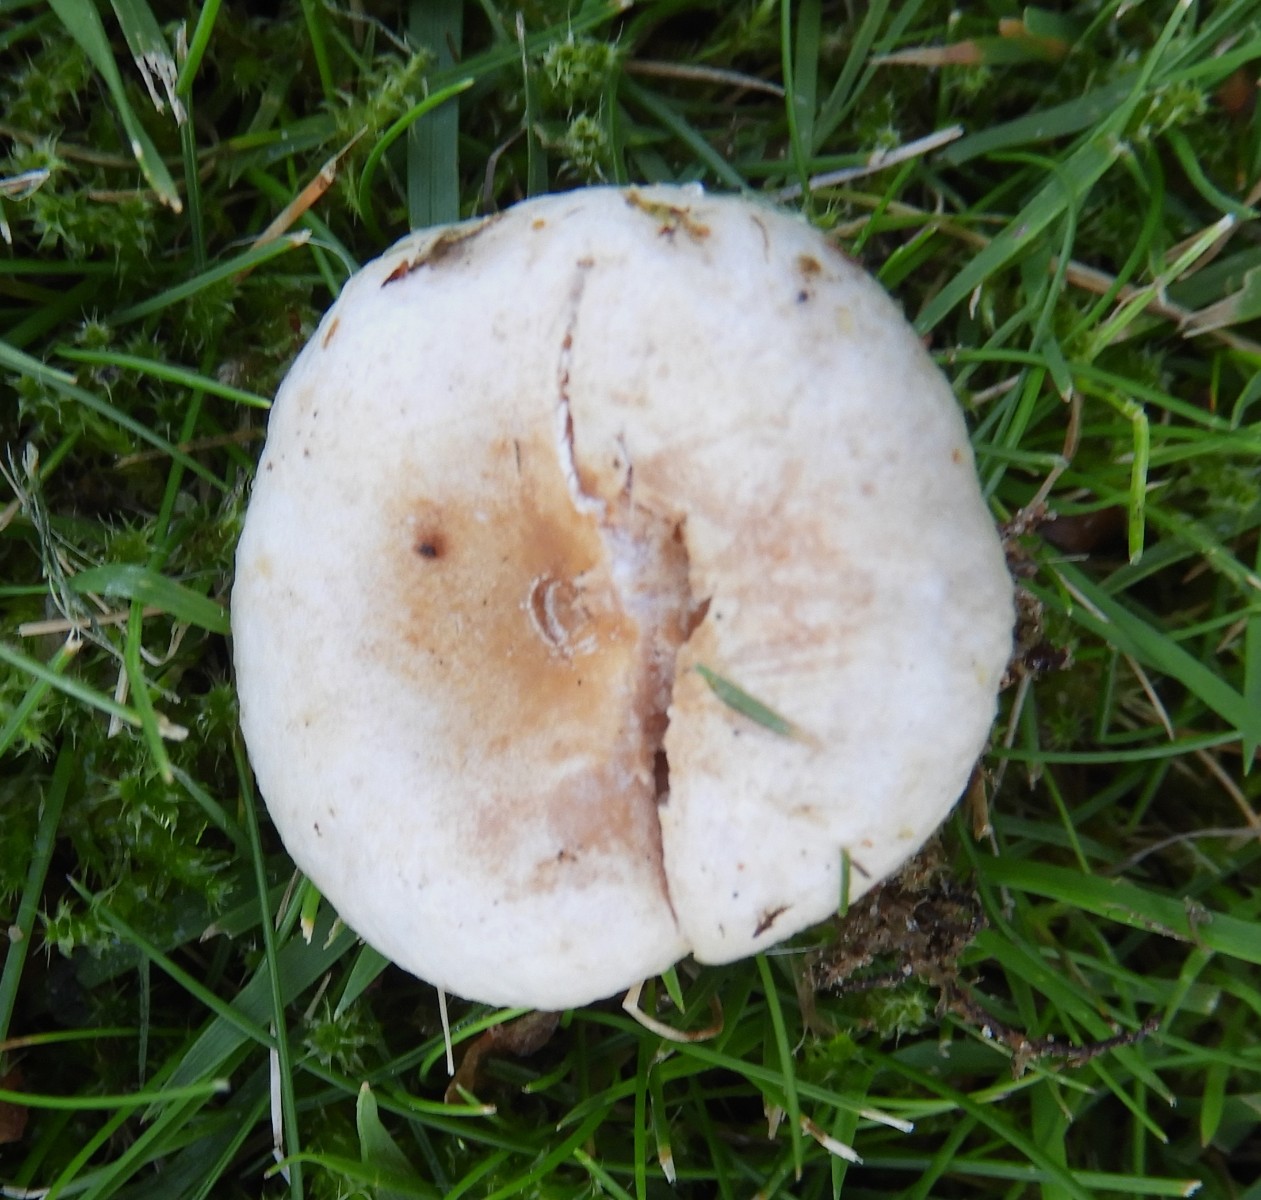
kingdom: Fungi
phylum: Basidiomycota
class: Agaricomycetes
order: Russulales
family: Russulaceae
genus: Lactarius
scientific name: Lactarius pubescens
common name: dunet mælkehat
